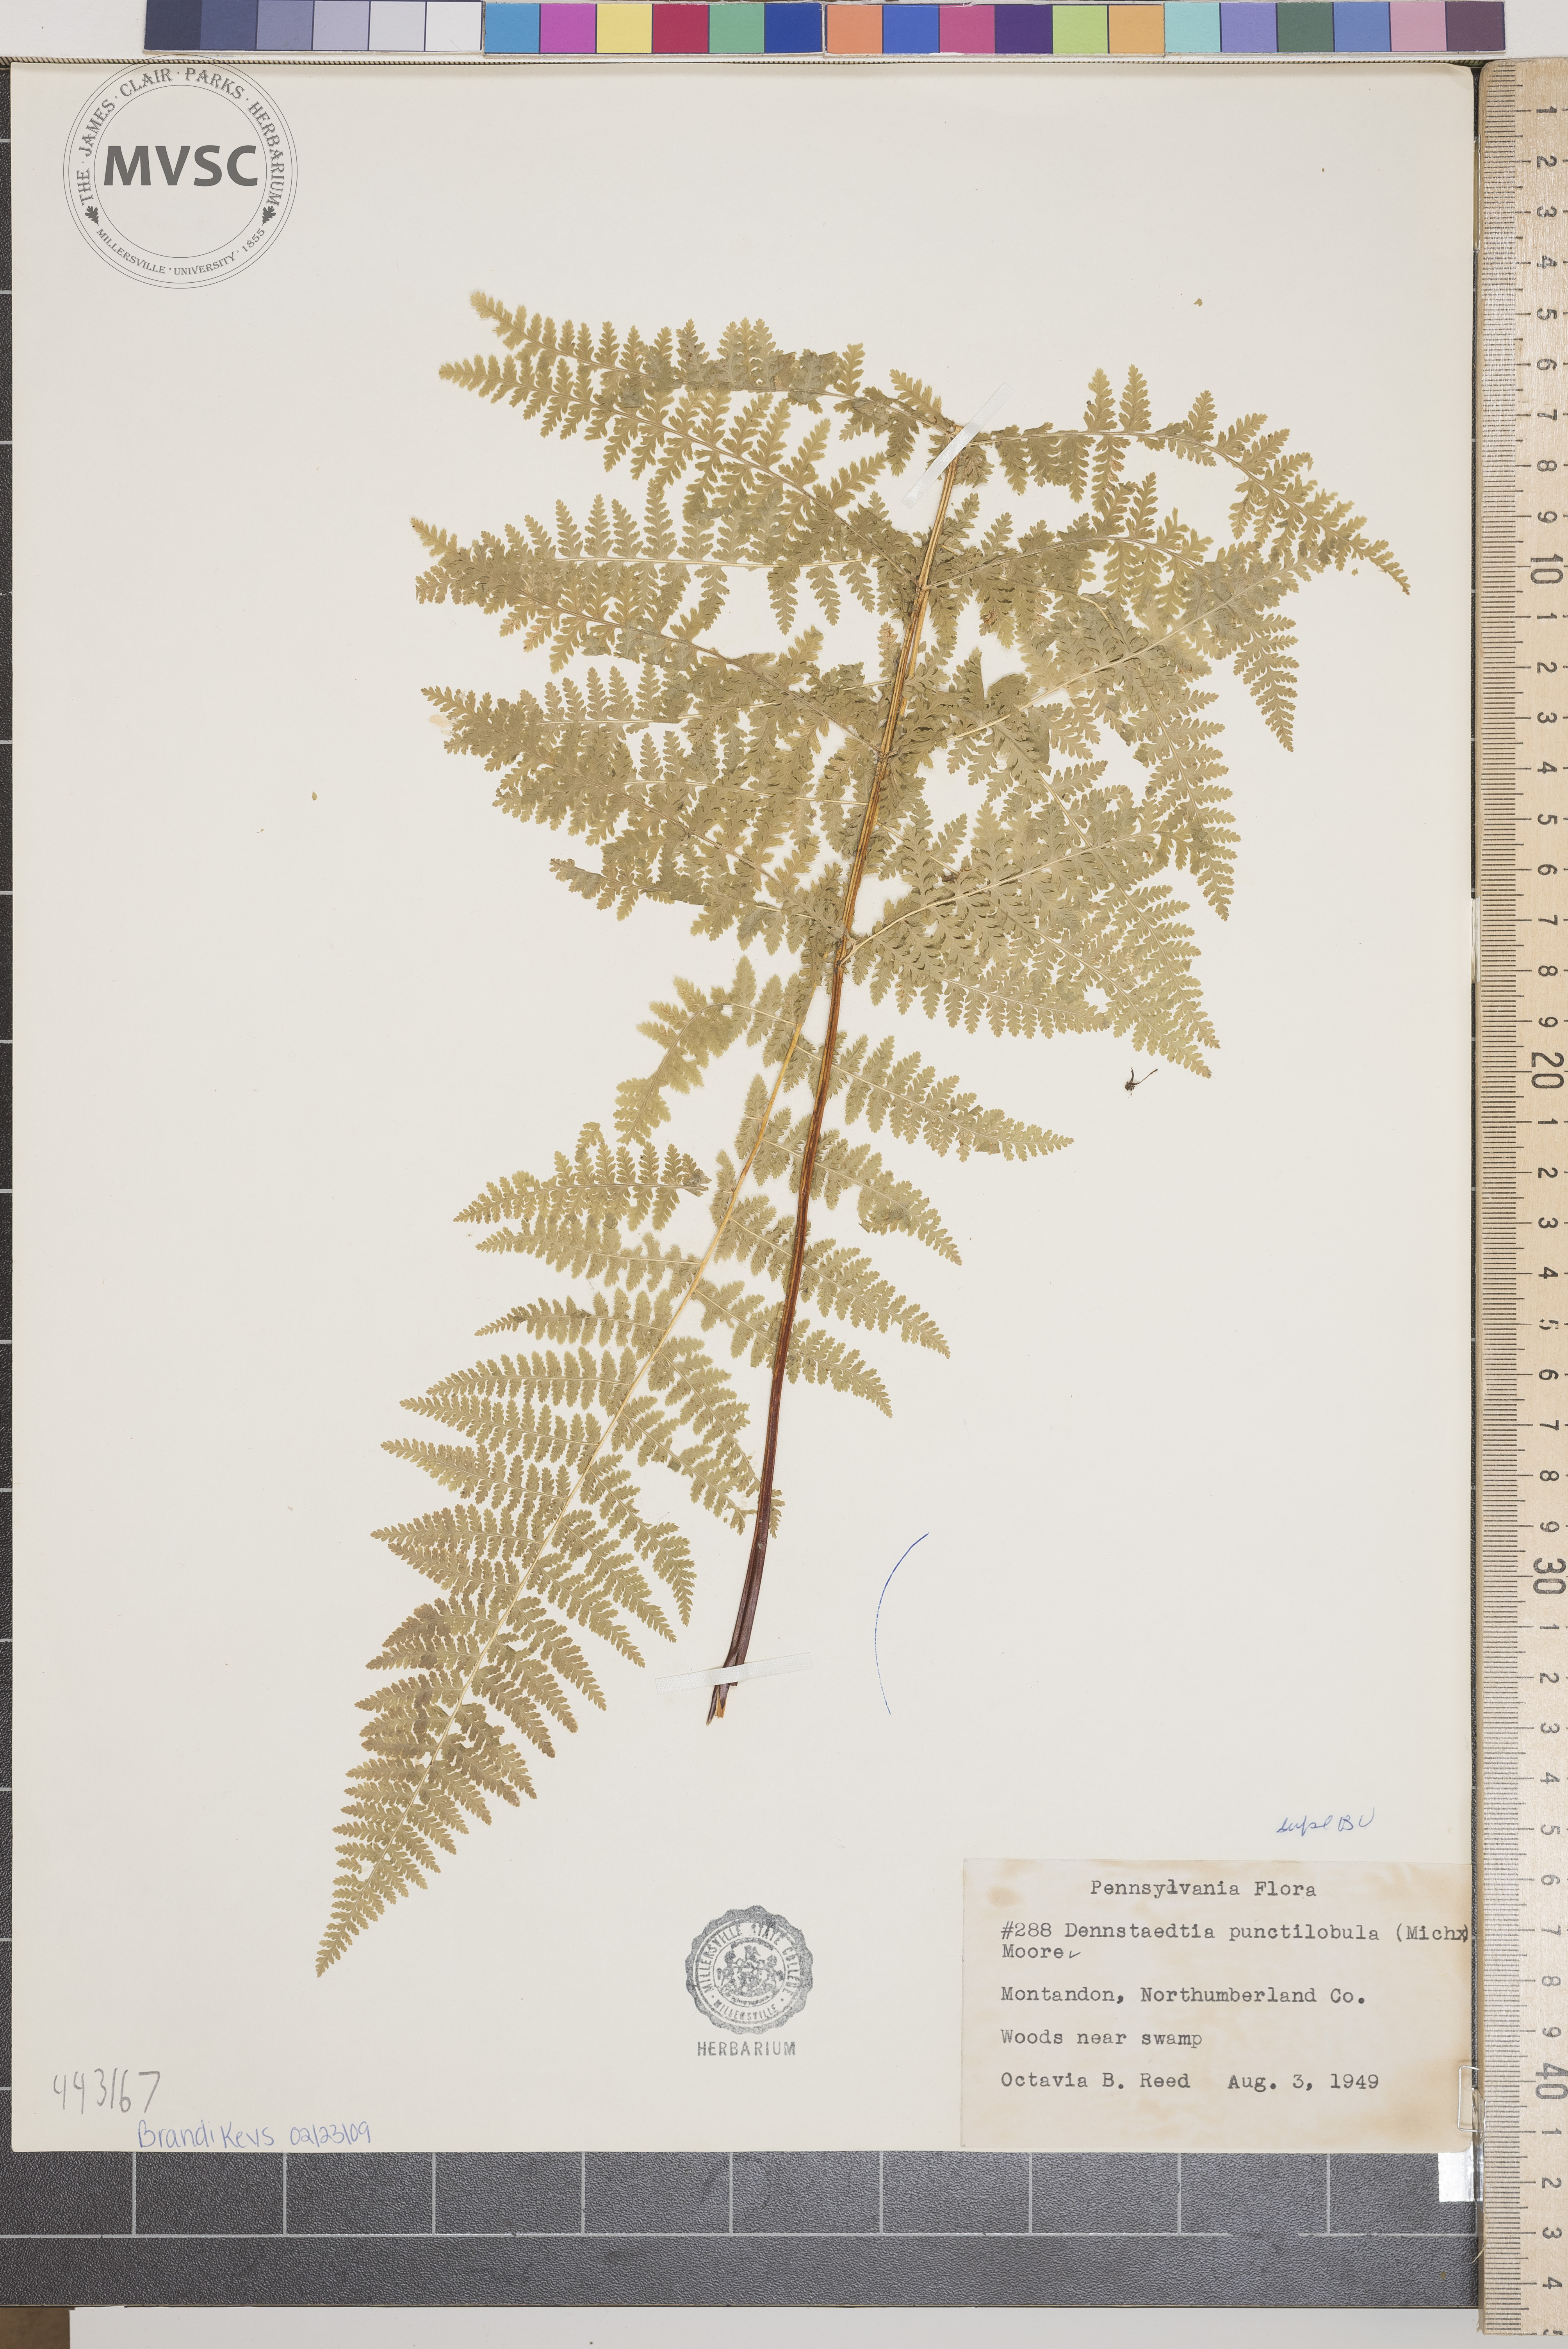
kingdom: Plantae
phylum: Tracheophyta
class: Polypodiopsida
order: Polypodiales
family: Dennstaedtiaceae
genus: Sitobolium
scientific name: Sitobolium punctilobum
